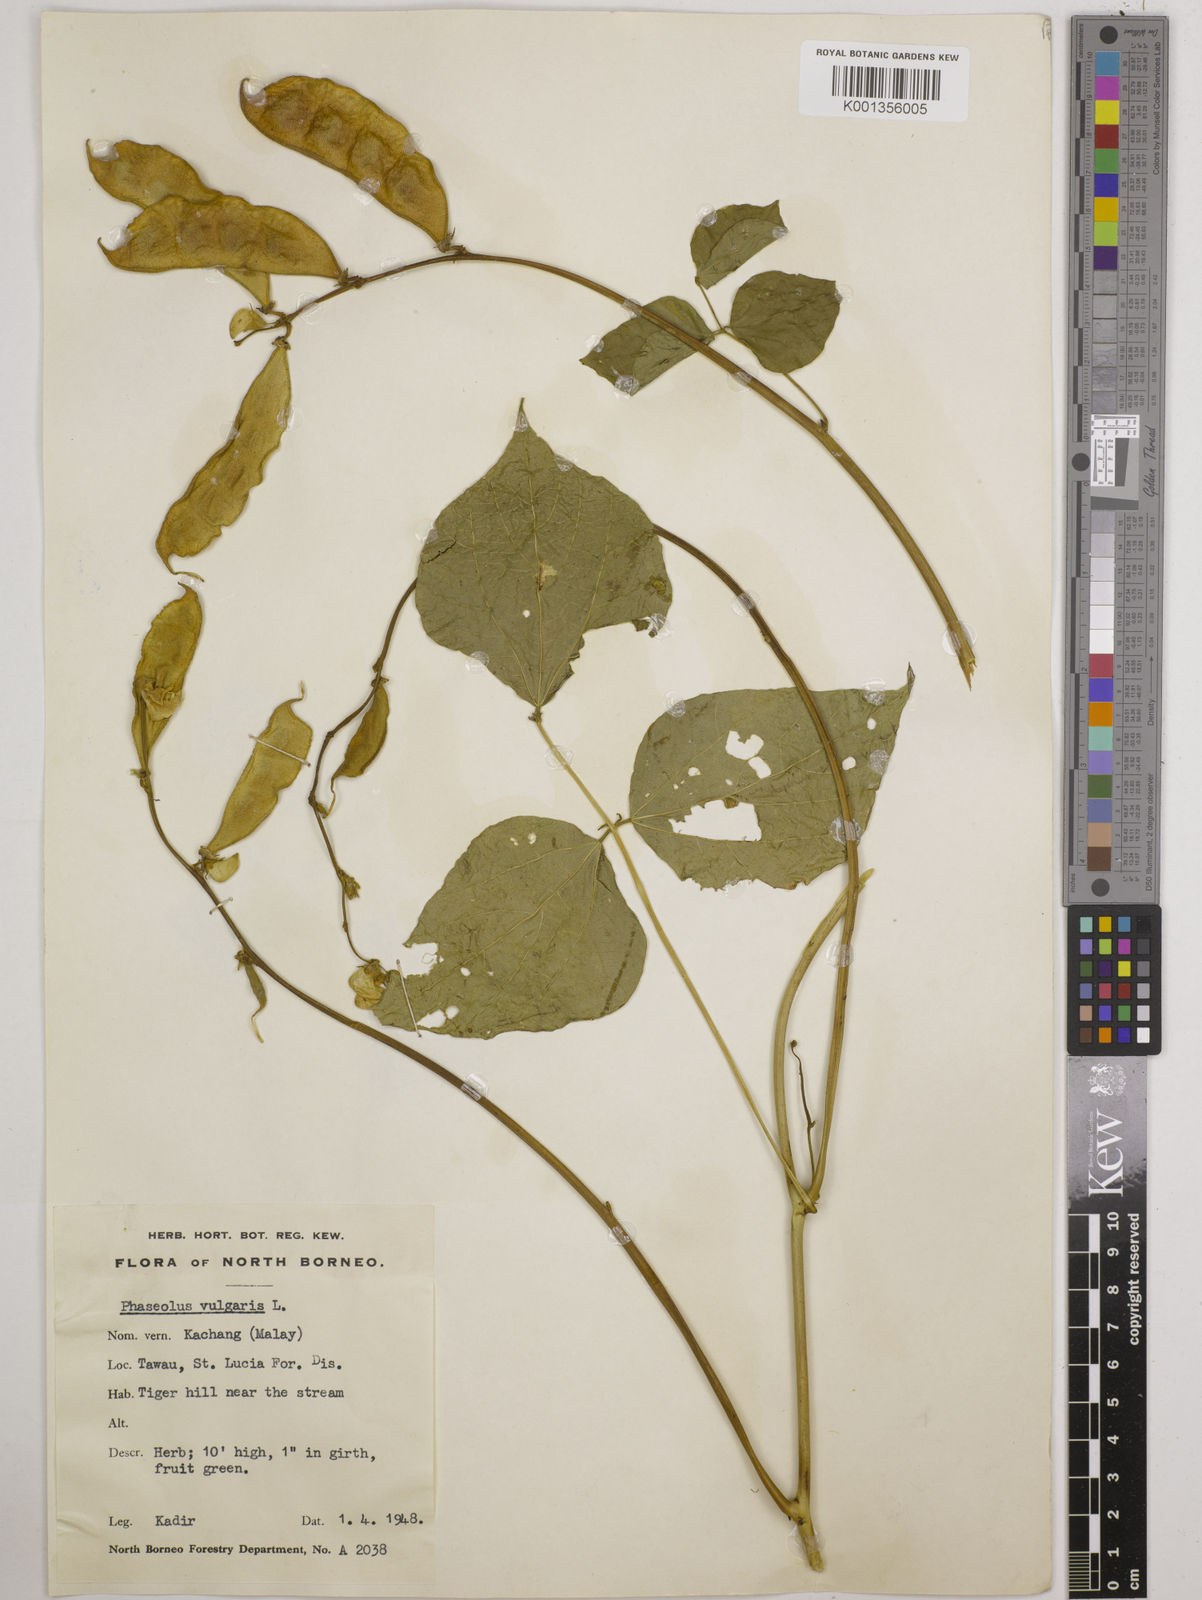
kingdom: Plantae
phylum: Tracheophyta
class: Magnoliopsida
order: Fabales
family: Fabaceae
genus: Lablab
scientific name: Lablab purpureus
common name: Lablab-bean
